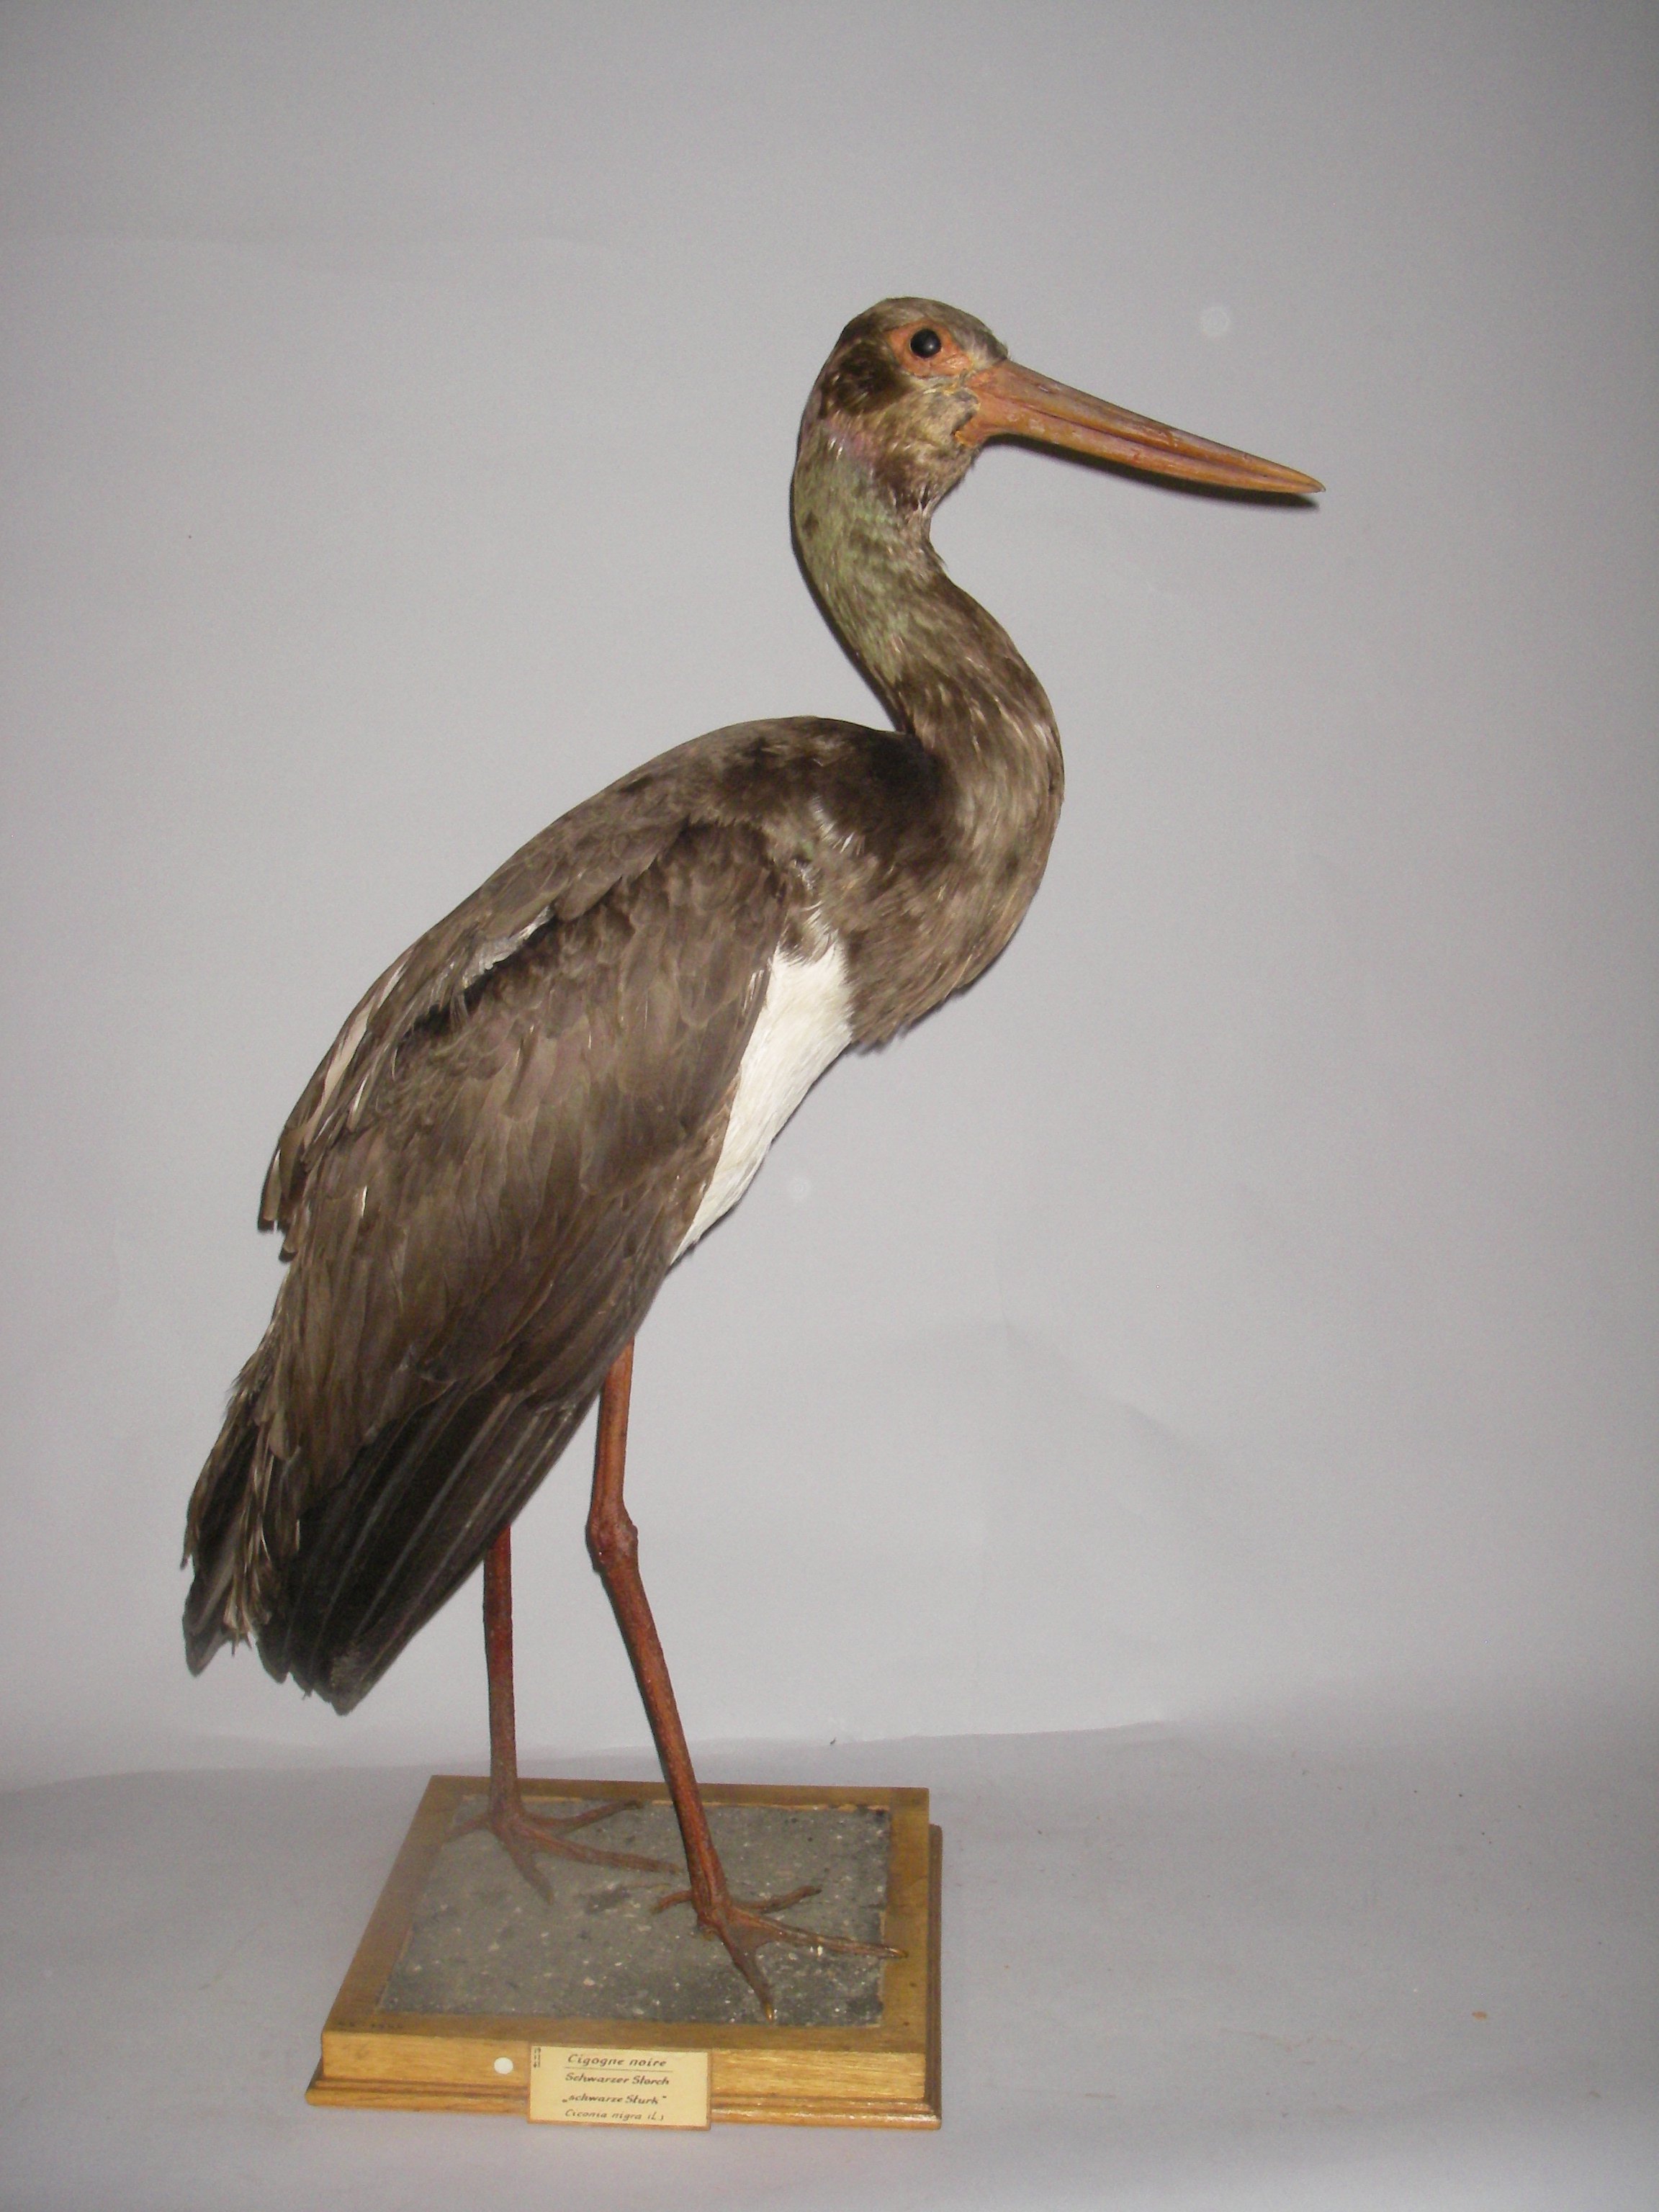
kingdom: Animalia
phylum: Chordata
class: Aves
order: Ciconiiformes
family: Ciconiidae
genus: Ciconia
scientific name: Ciconia nigra
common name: Black stork
